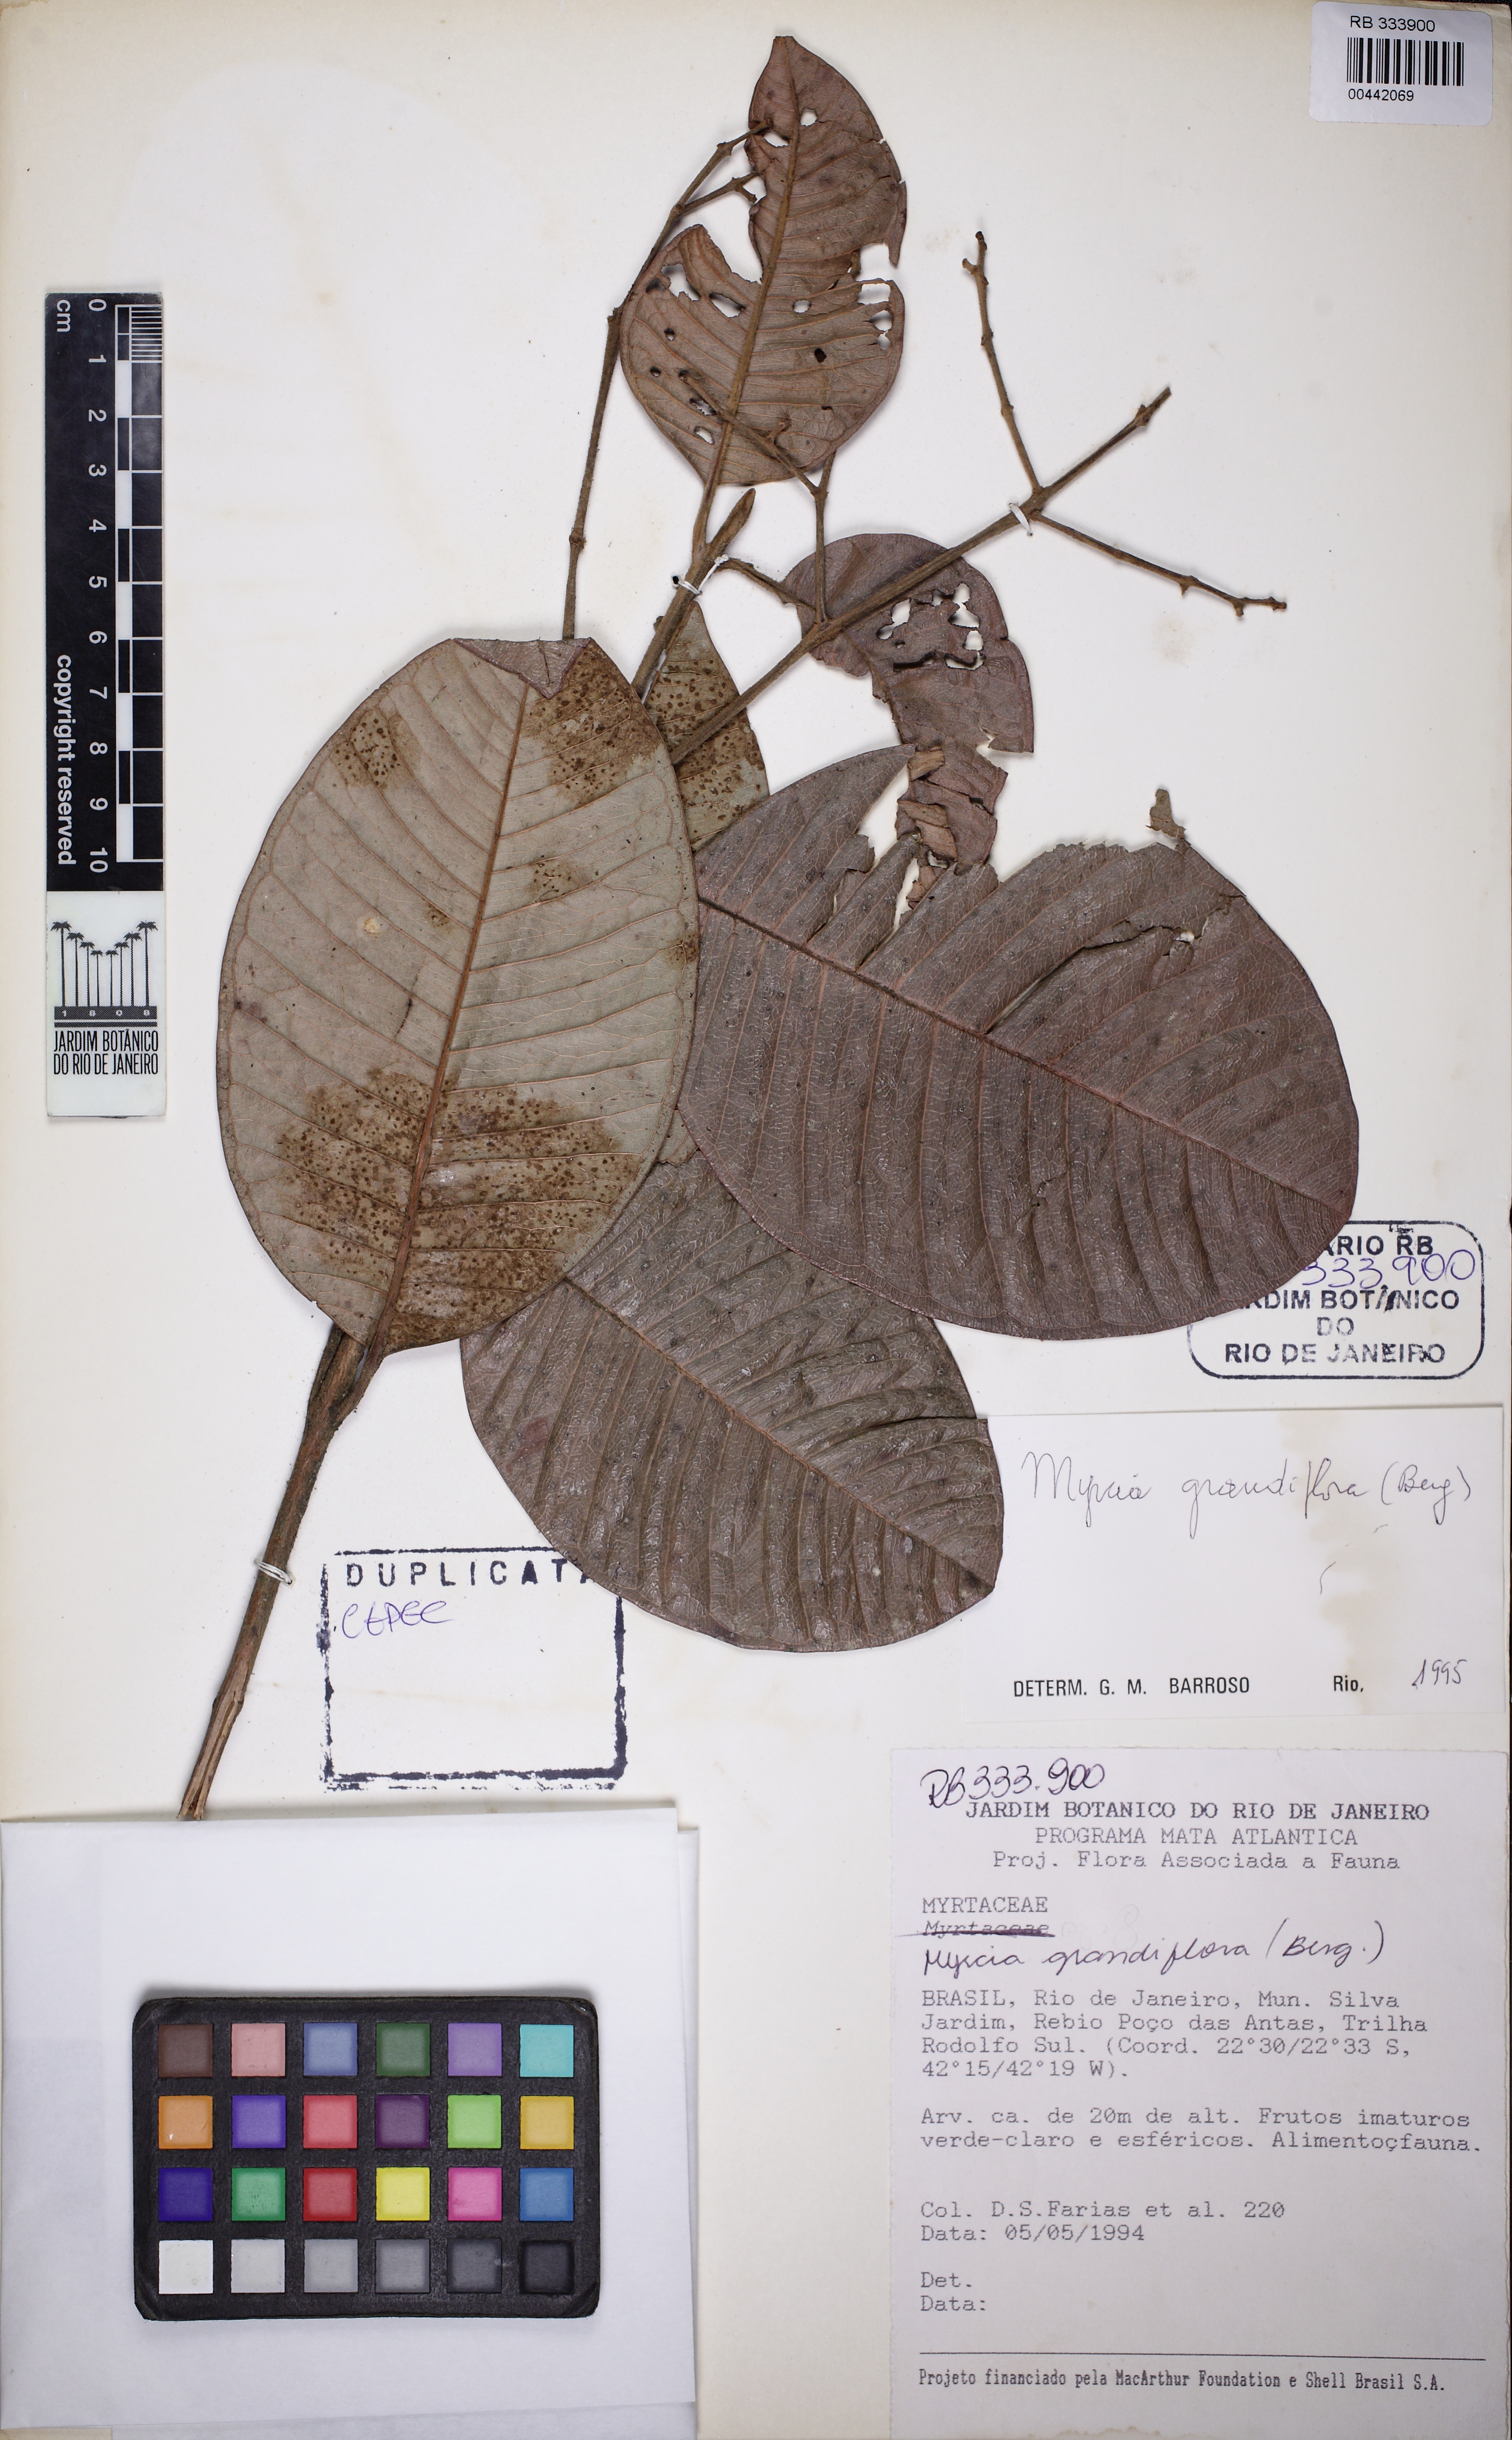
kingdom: Plantae
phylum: Tracheophyta
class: Magnoliopsida
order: Myrtales
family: Myrtaceae
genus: Myrcia
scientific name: Myrcia pubipetala
